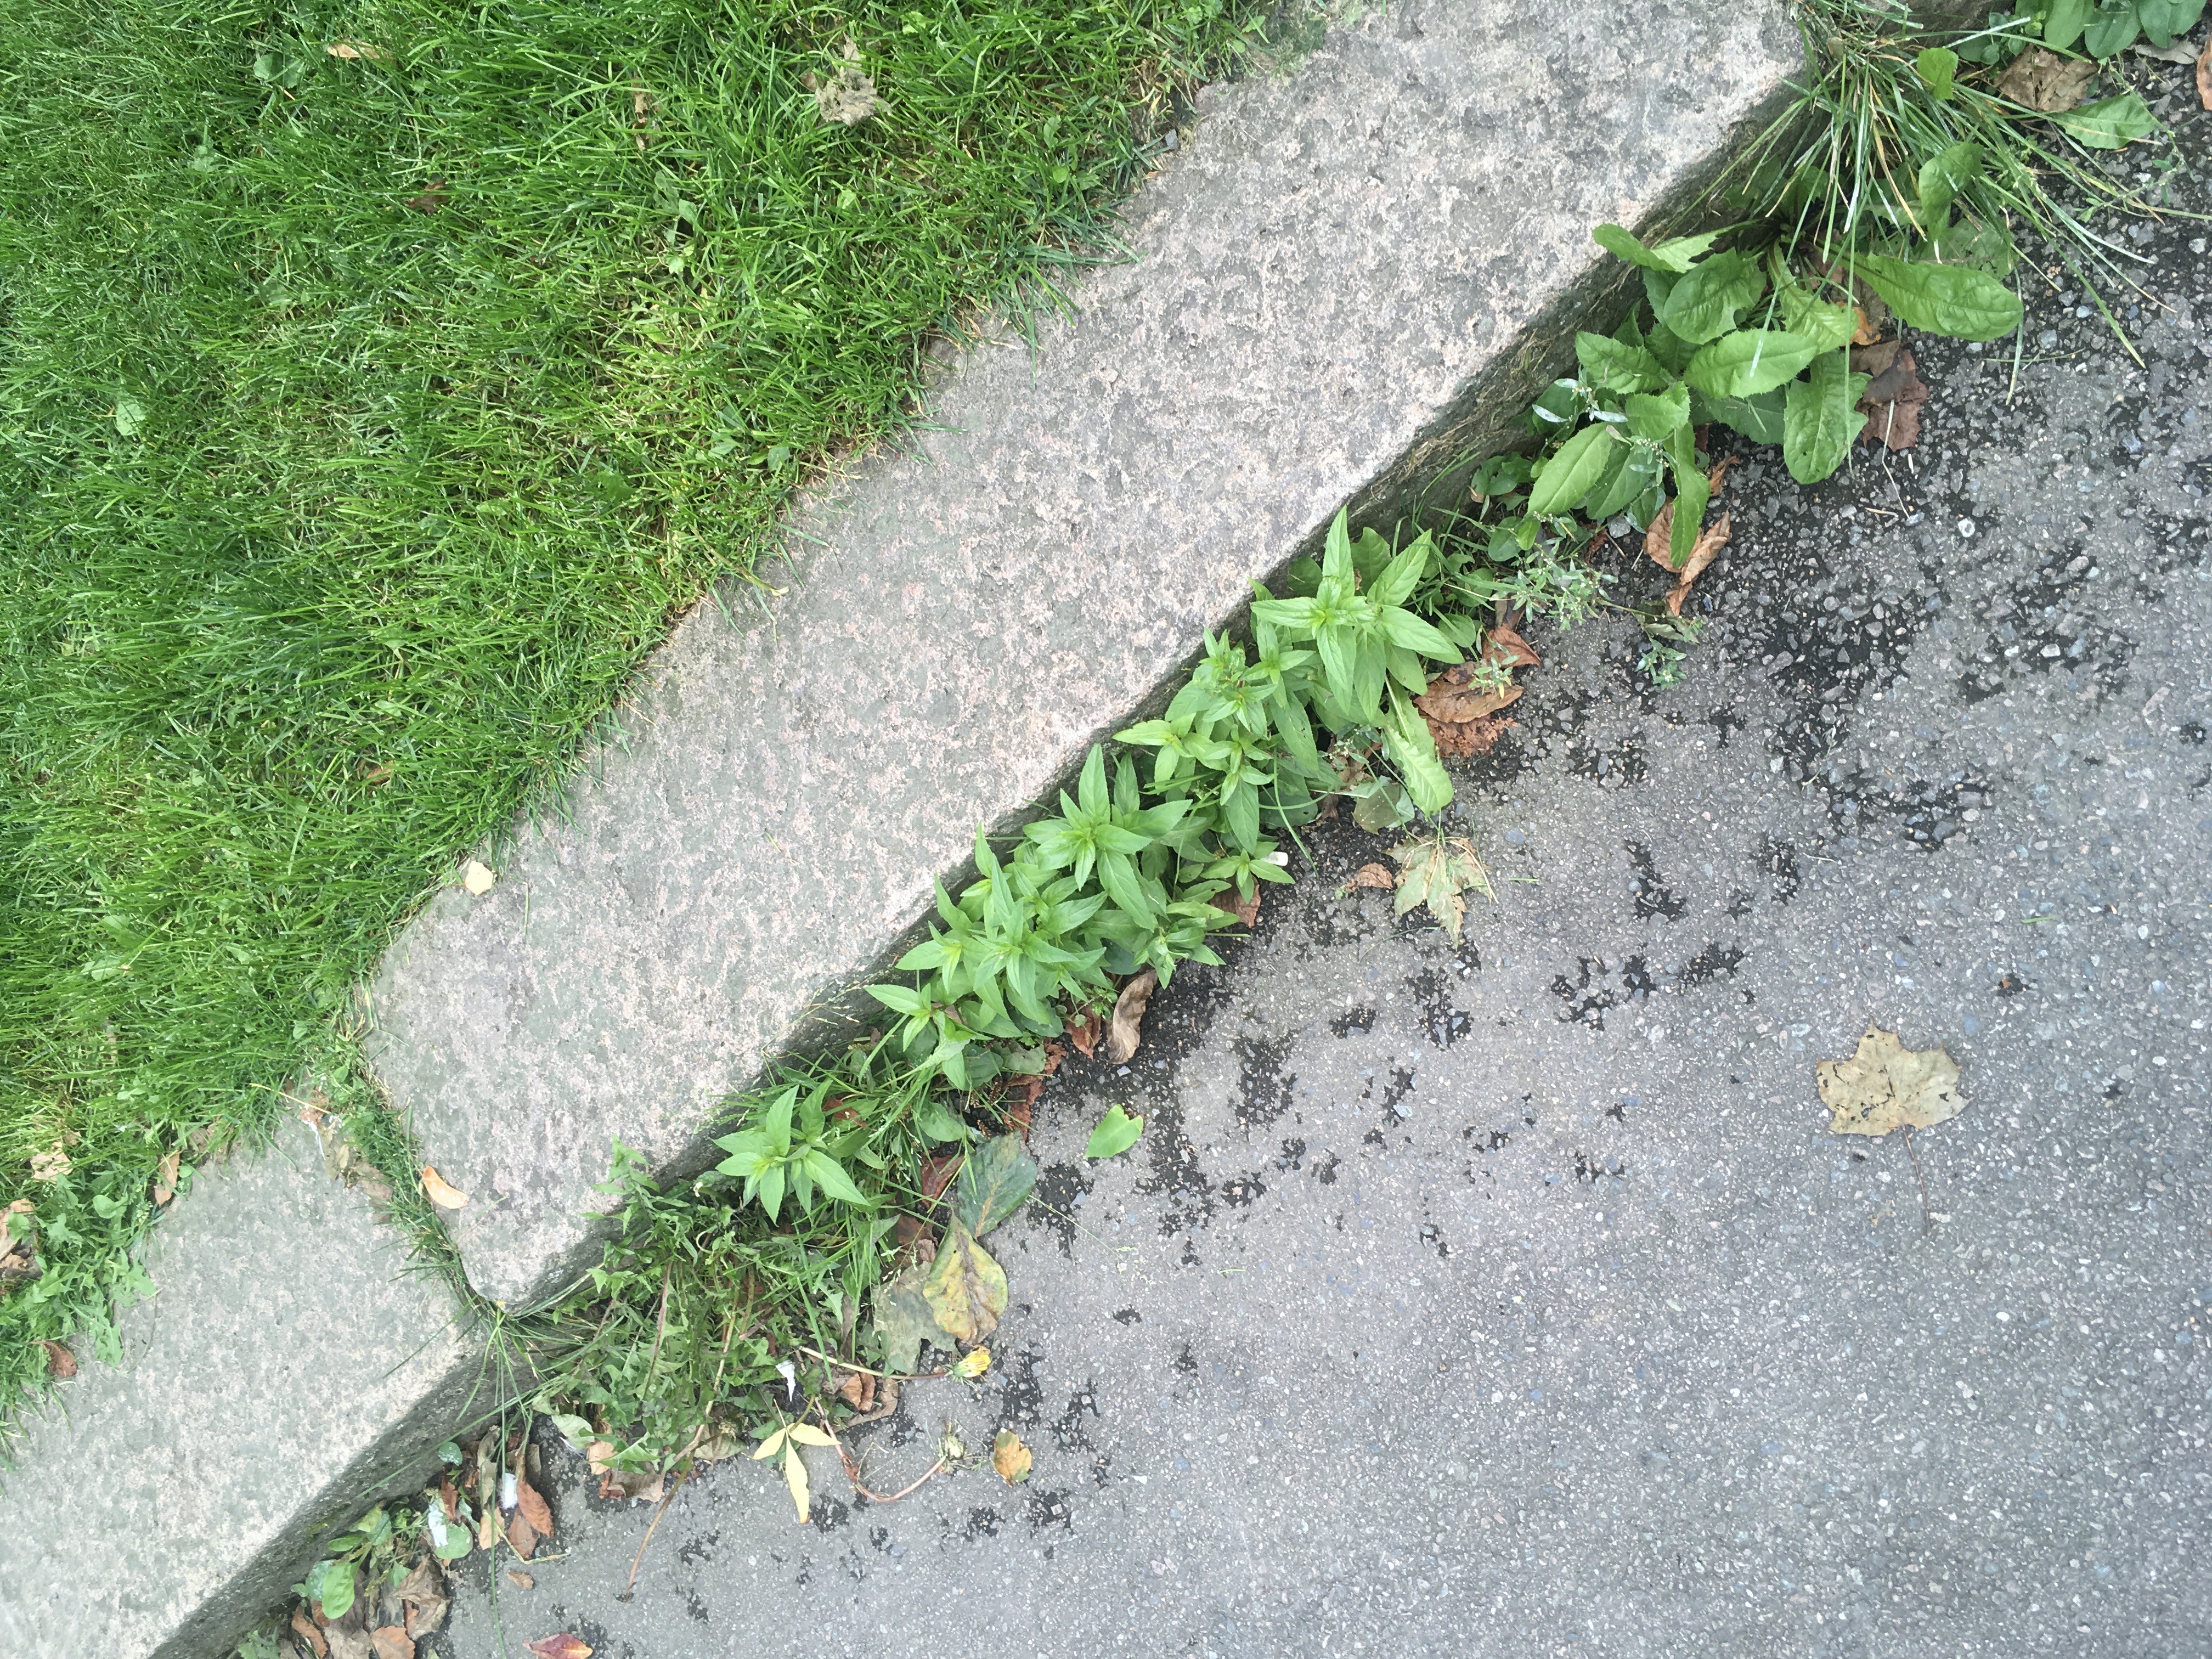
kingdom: Plantae
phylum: Tracheophyta
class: Magnoliopsida
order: Myrtales
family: Onagraceae
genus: Epilobium
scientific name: Epilobium ciliatum
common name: amerikamjølke
